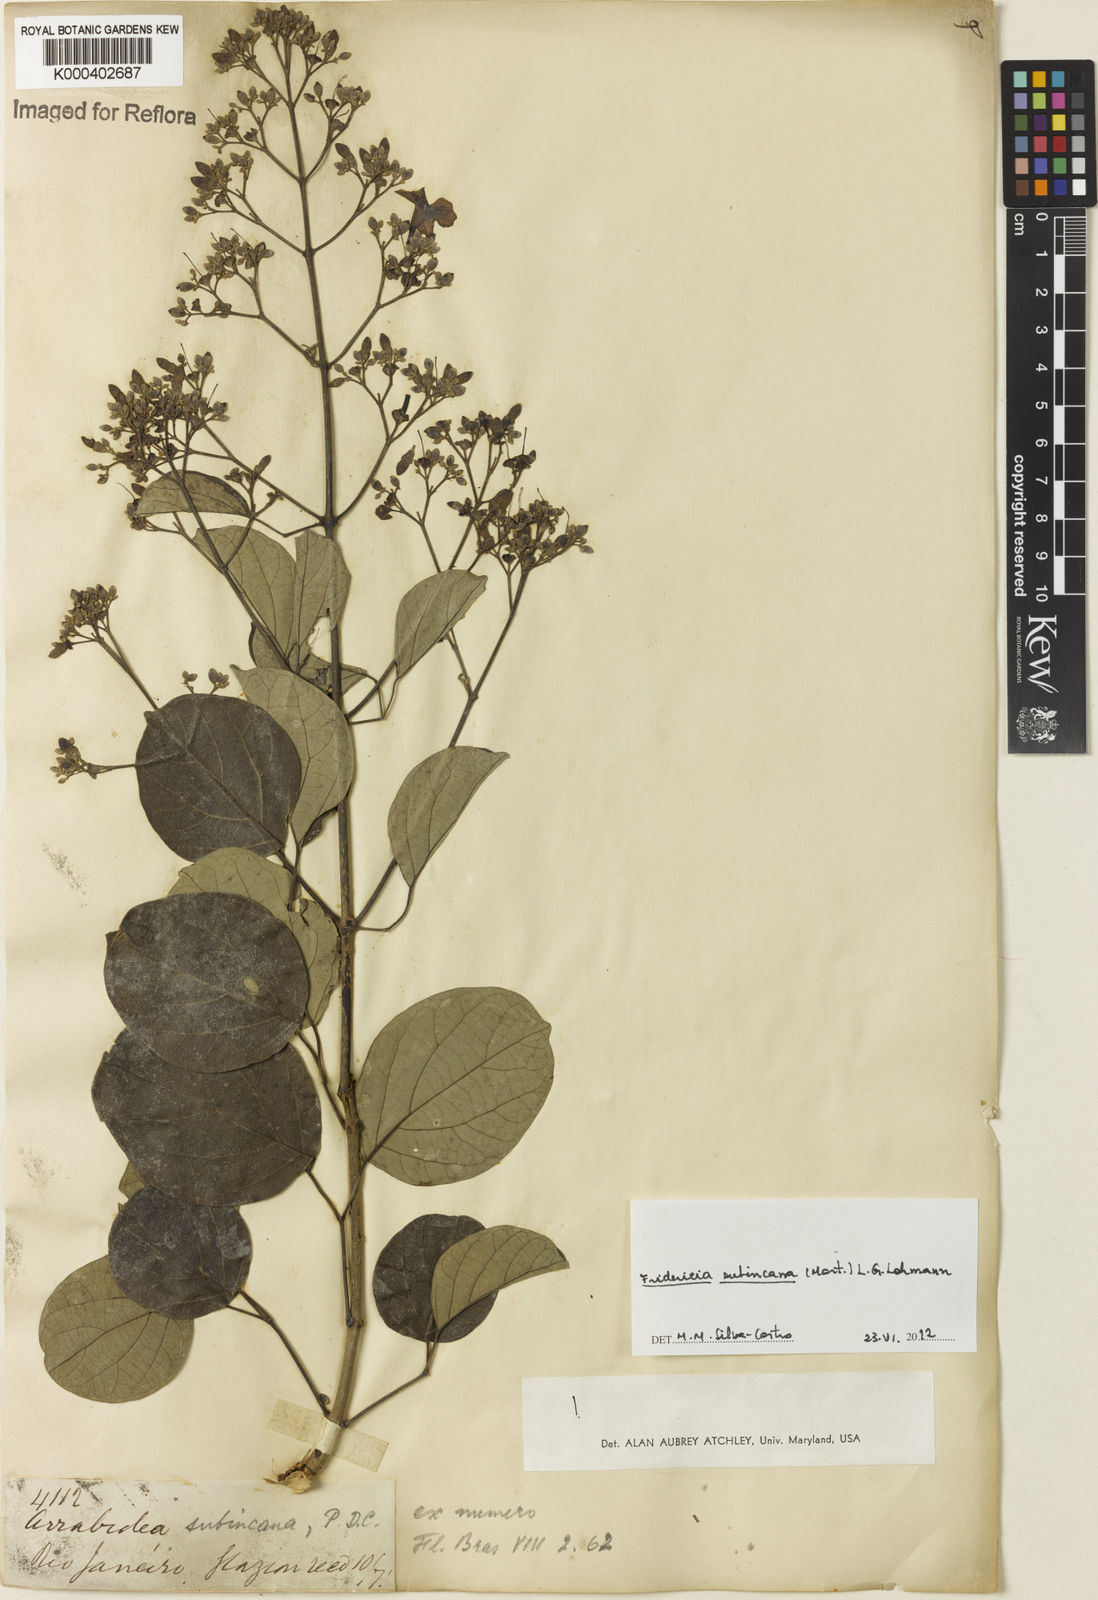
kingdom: Plantae
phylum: Tracheophyta
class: Magnoliopsida
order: Lamiales
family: Bignoniaceae
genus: Fridericia
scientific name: Fridericia subincana
